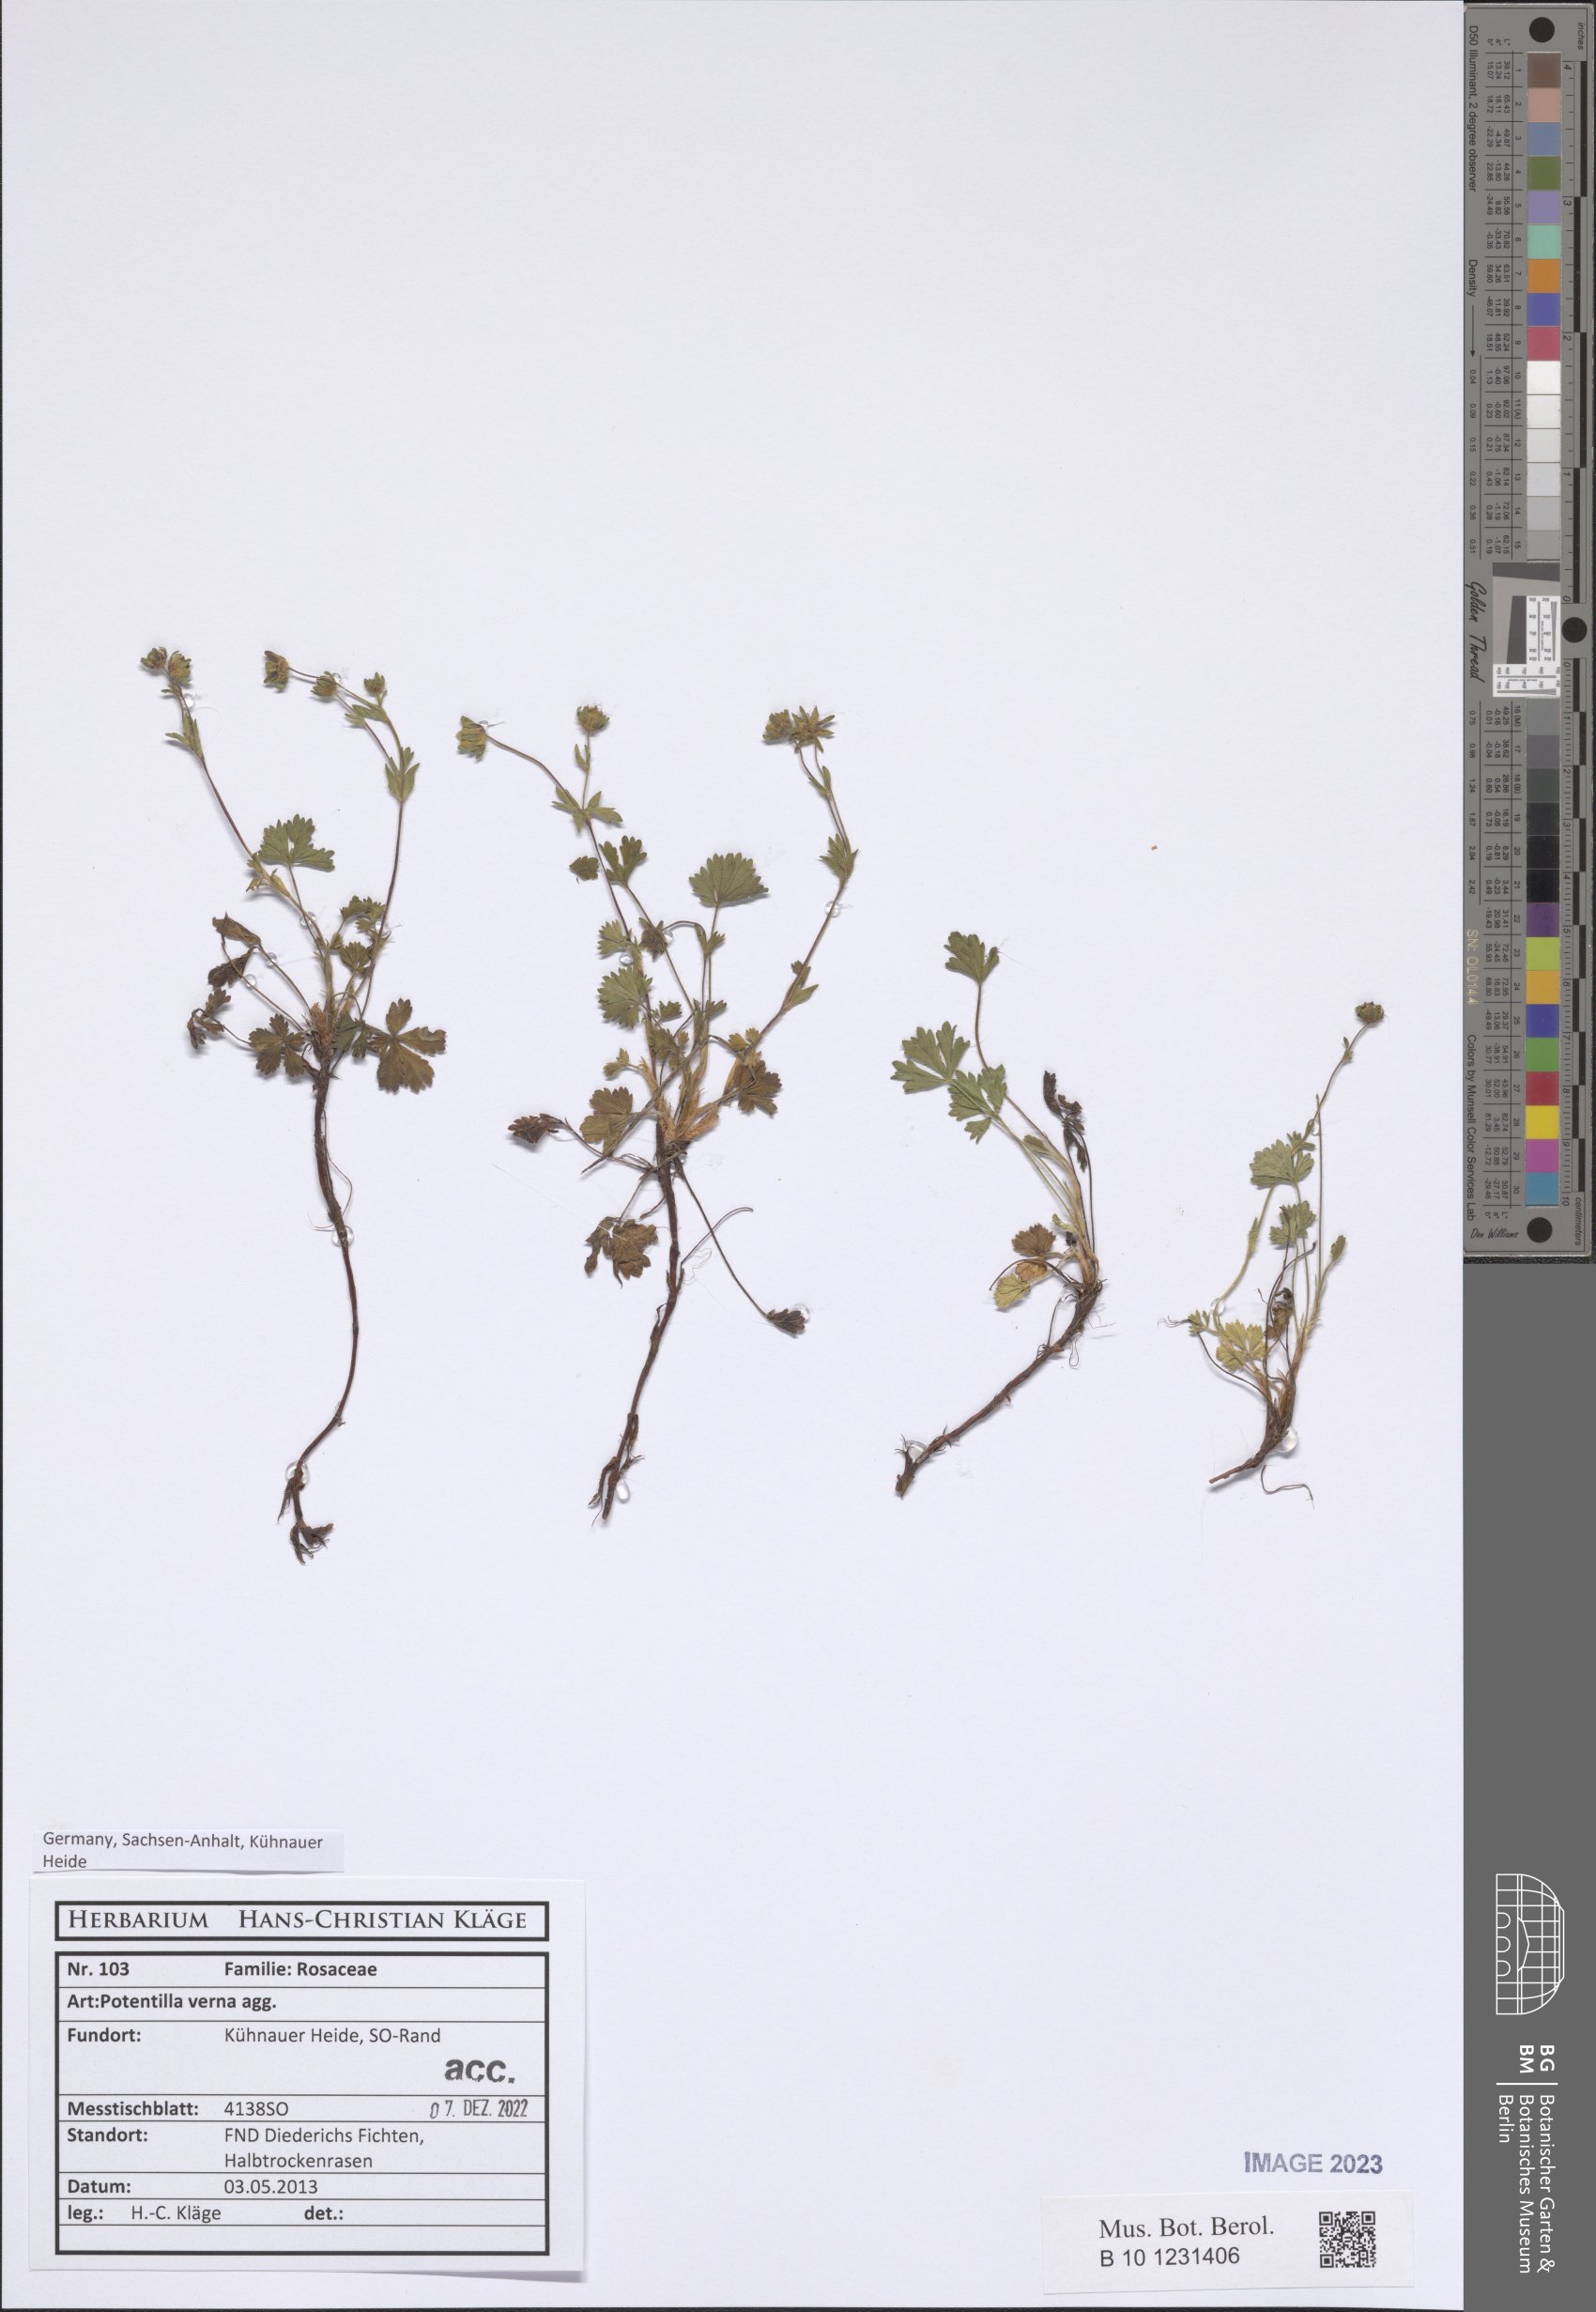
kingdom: Plantae
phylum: Tracheophyta
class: Magnoliopsida
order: Rosales
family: Rosaceae
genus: Potentilla
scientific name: Potentilla verna
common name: Spring cinquefoil
